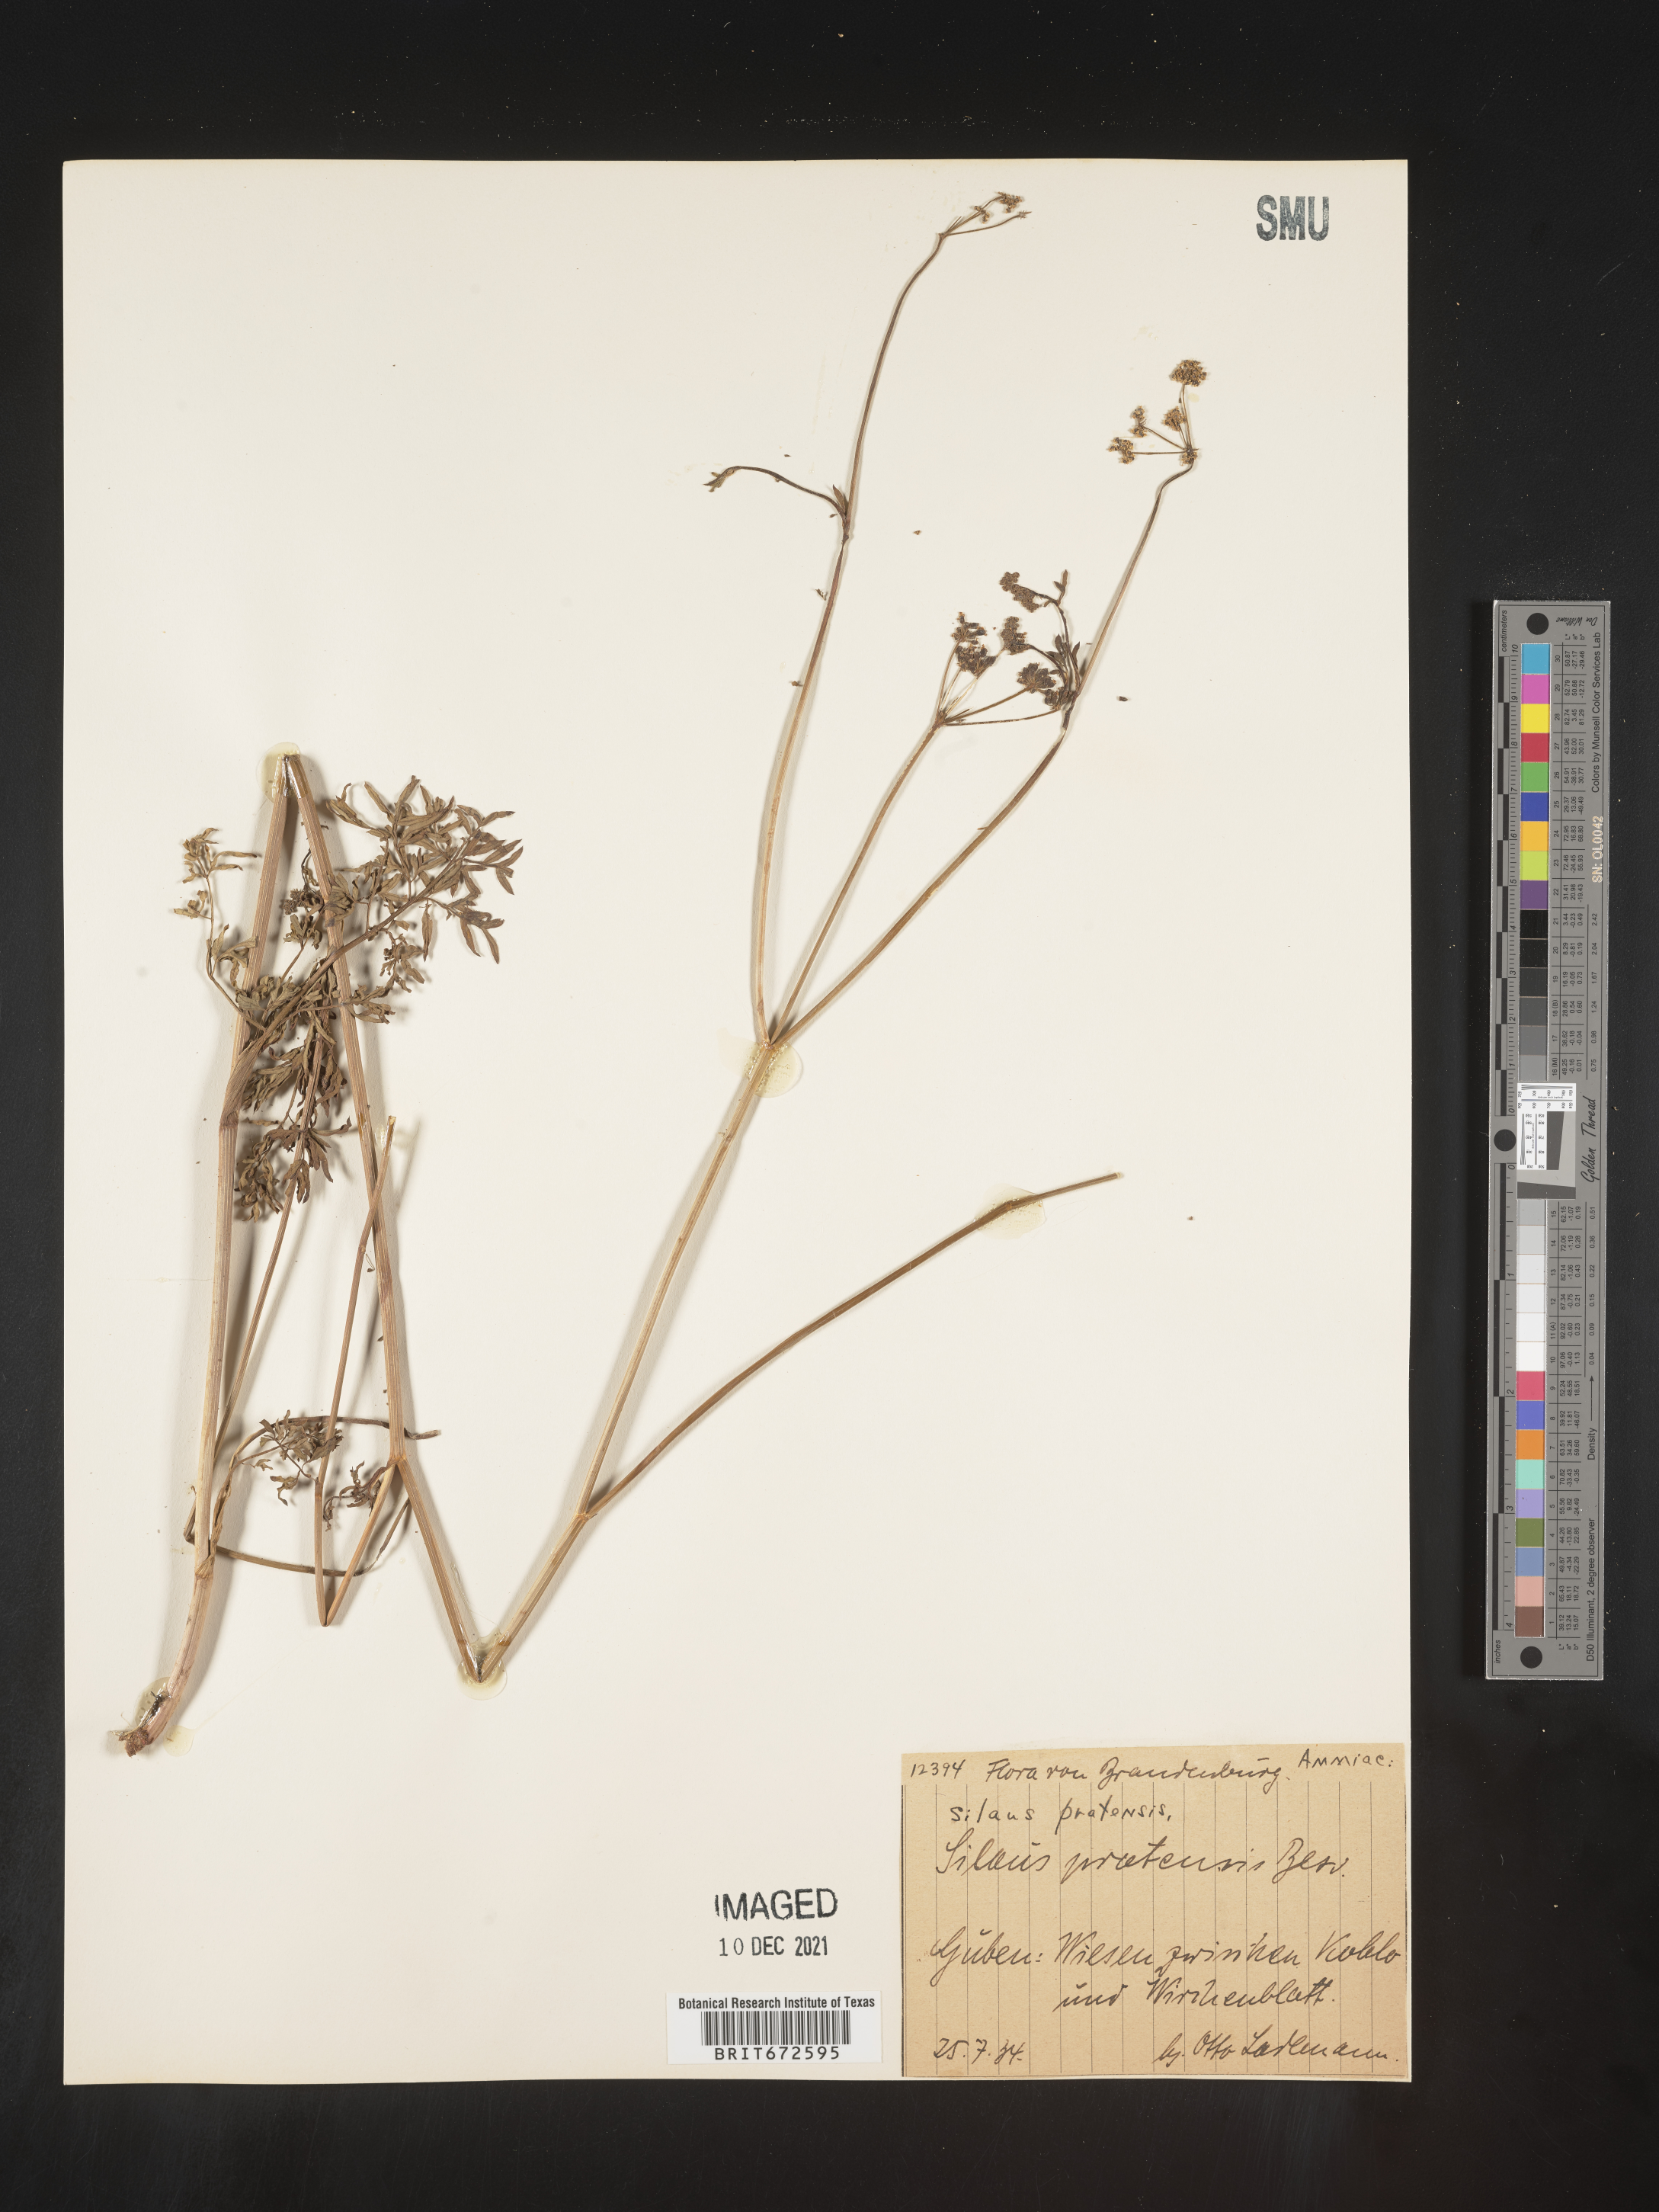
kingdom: Plantae
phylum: Tracheophyta
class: Magnoliopsida
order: Apiales
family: Apiaceae
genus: Silaum
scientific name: Silaum
